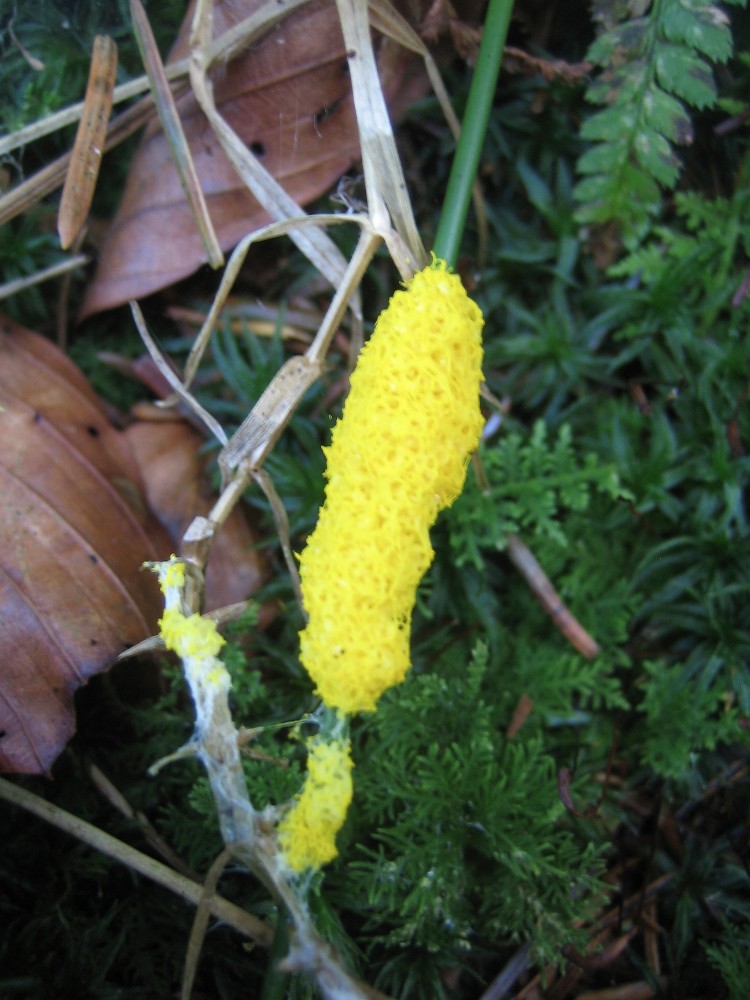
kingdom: Protozoa
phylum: Mycetozoa
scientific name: Mycetozoa
